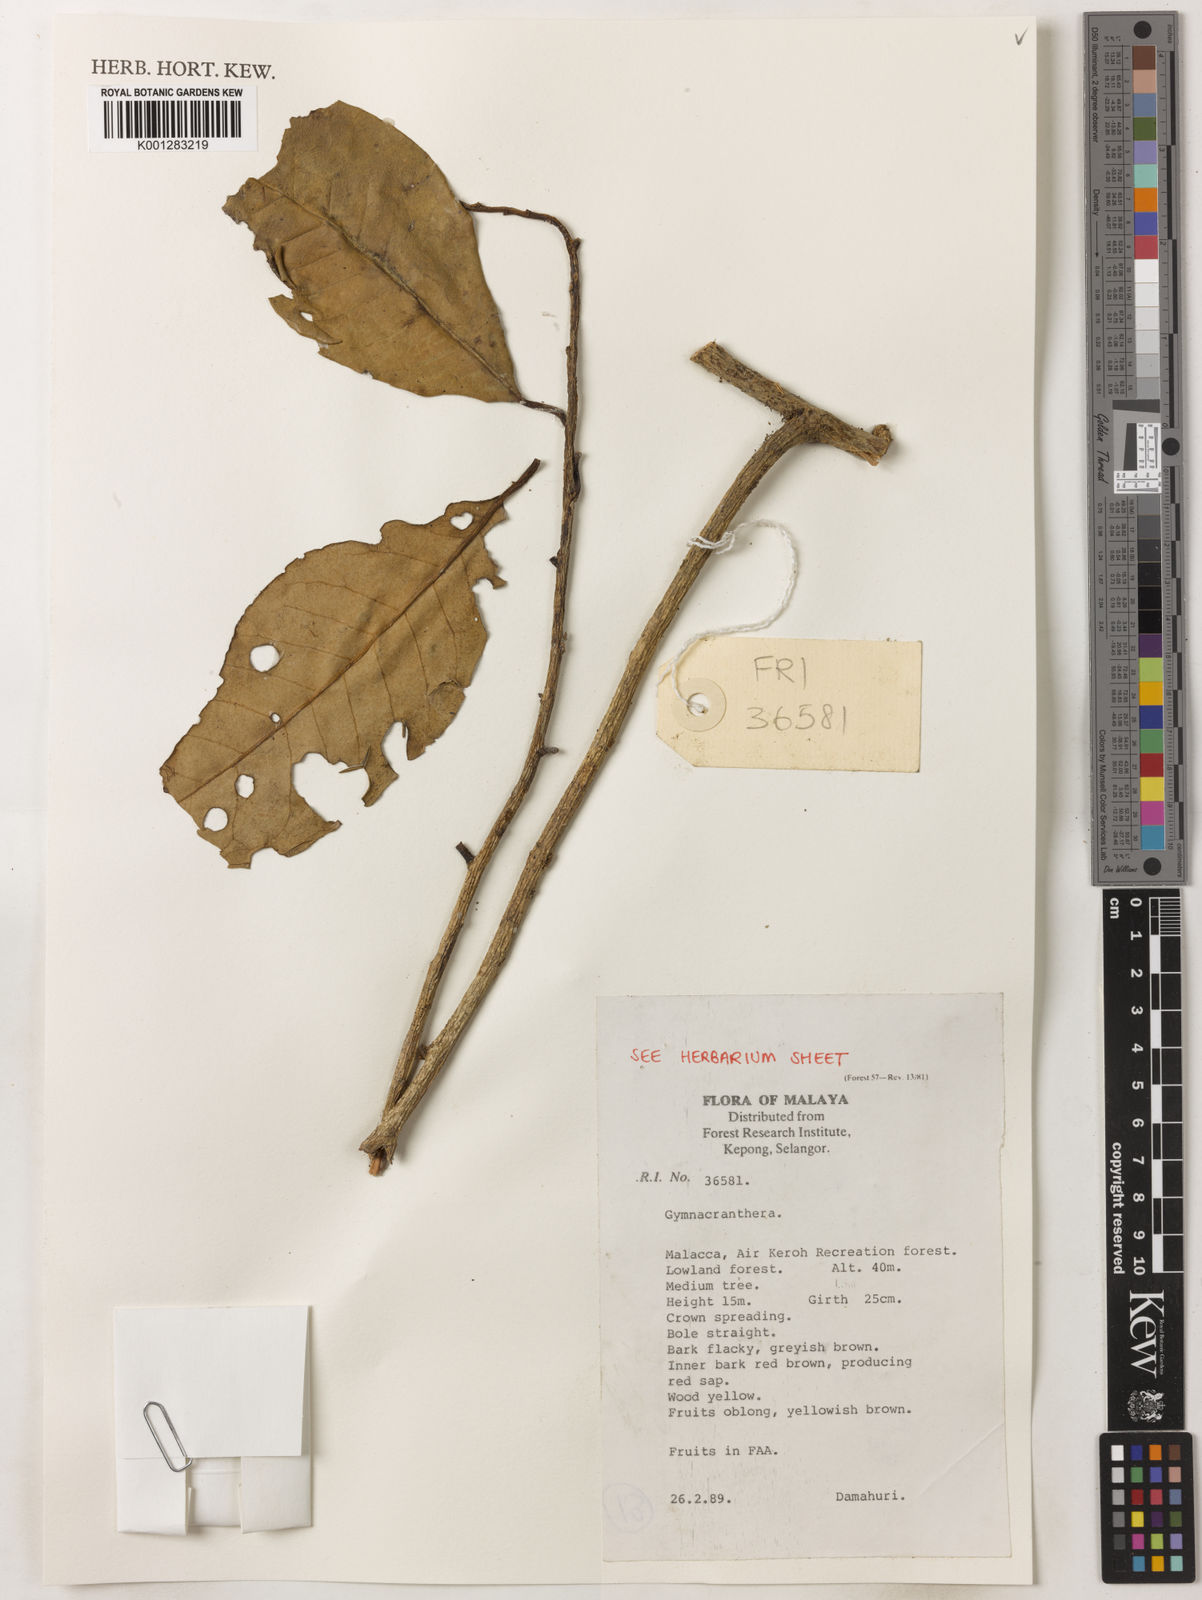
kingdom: Plantae
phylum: Tracheophyta
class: Magnoliopsida
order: Magnoliales
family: Myristicaceae
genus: Gymnacranthera
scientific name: Gymnacranthera
